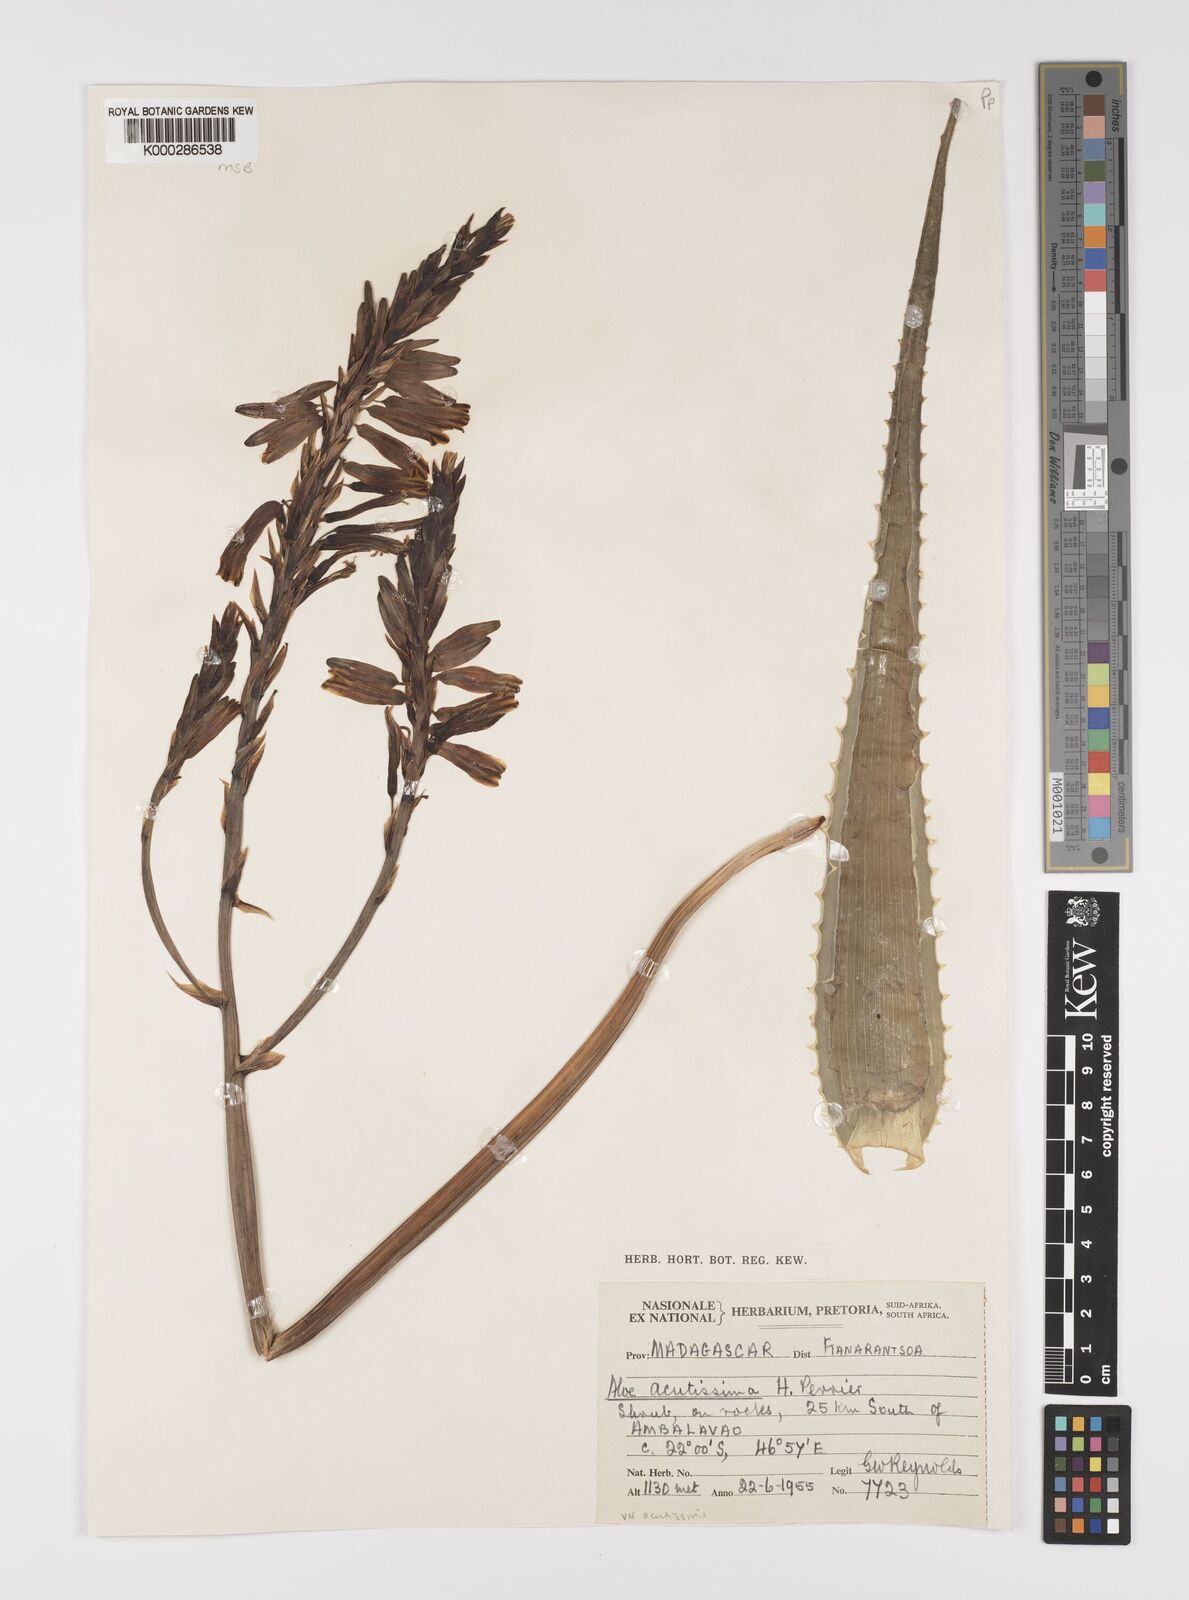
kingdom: Plantae
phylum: Tracheophyta
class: Liliopsida
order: Asparagales
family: Asphodelaceae
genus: Aloe
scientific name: Aloe
